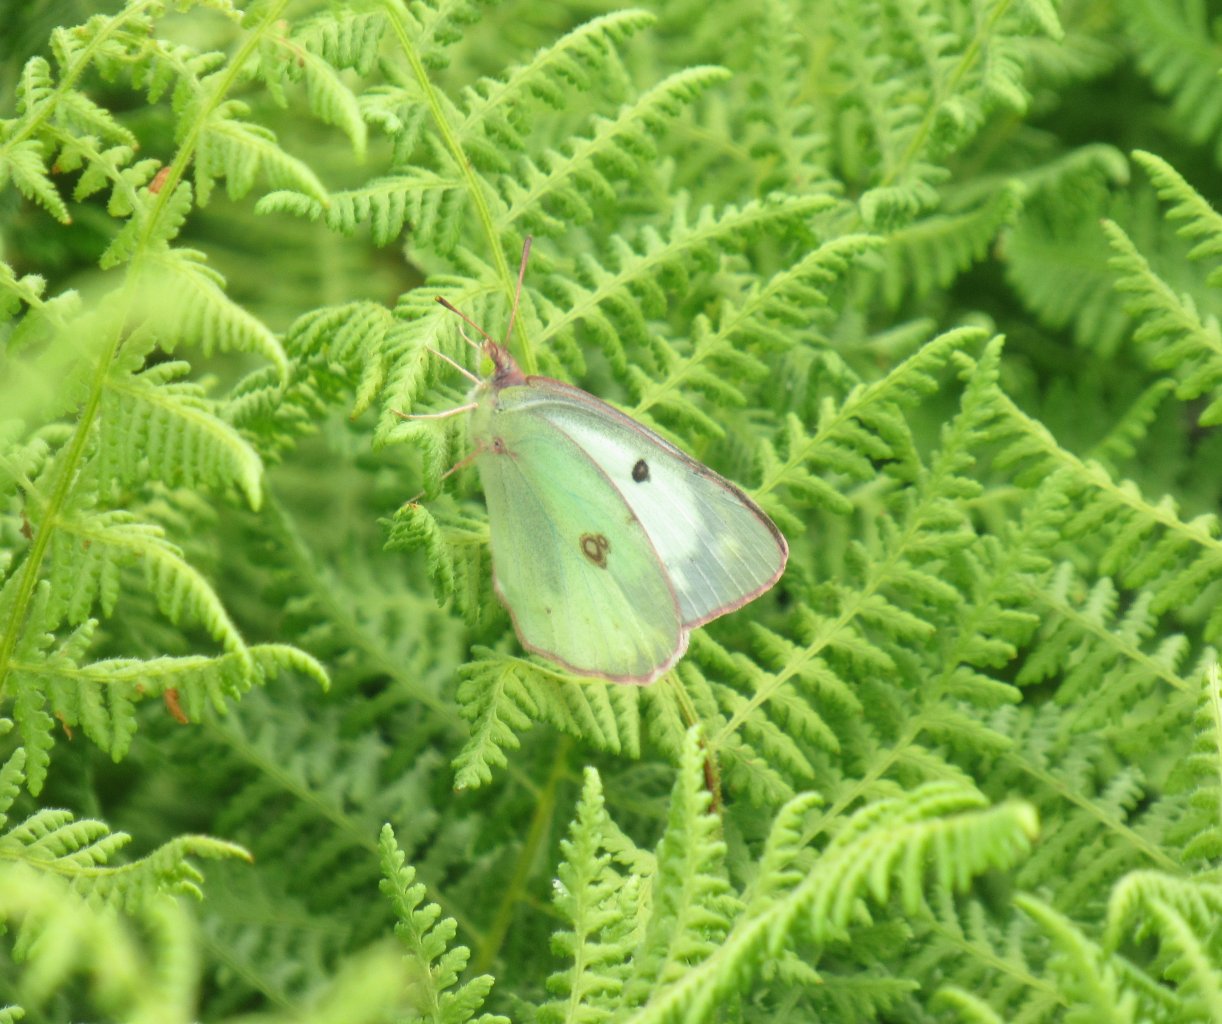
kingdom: Animalia
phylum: Arthropoda
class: Insecta
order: Lepidoptera
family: Pieridae
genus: Colias
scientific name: Colias philodice
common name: Clouded Sulphur
